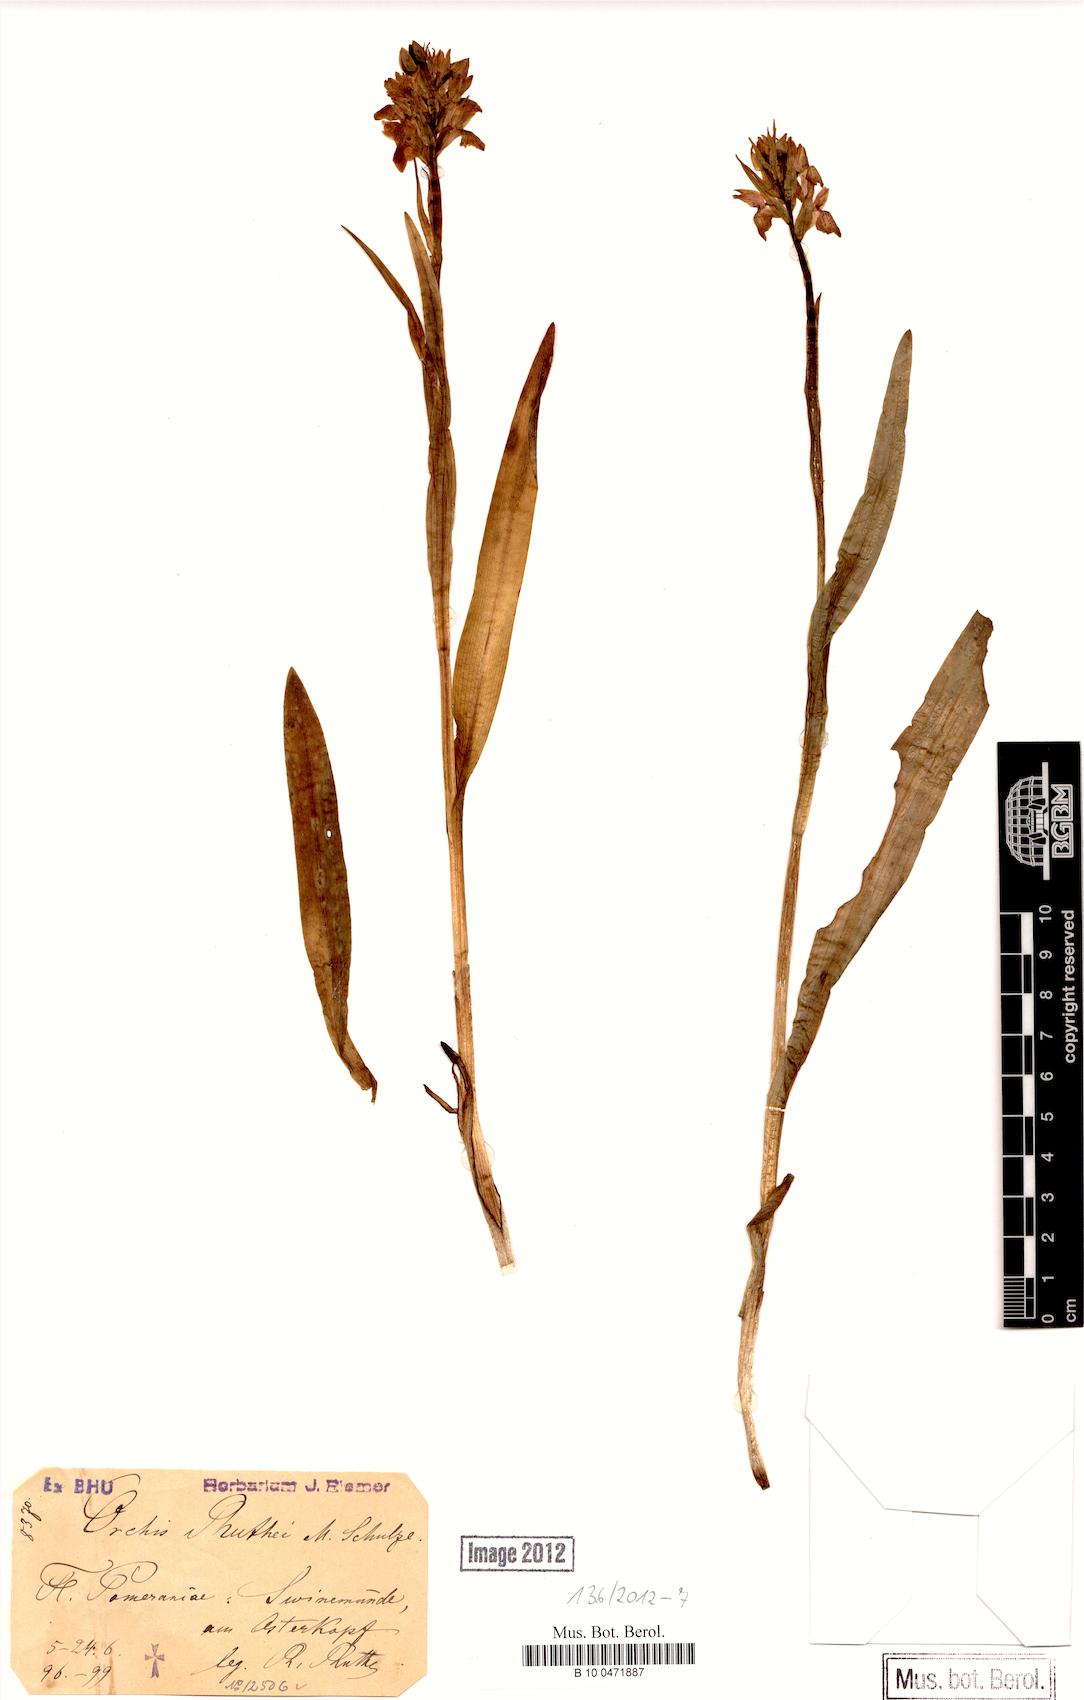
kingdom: Plantae
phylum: Tracheophyta
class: Liliopsida
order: Asparagales
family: Orchidaceae
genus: Dactylorhiza
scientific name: Dactylorhiza kerneriorum
